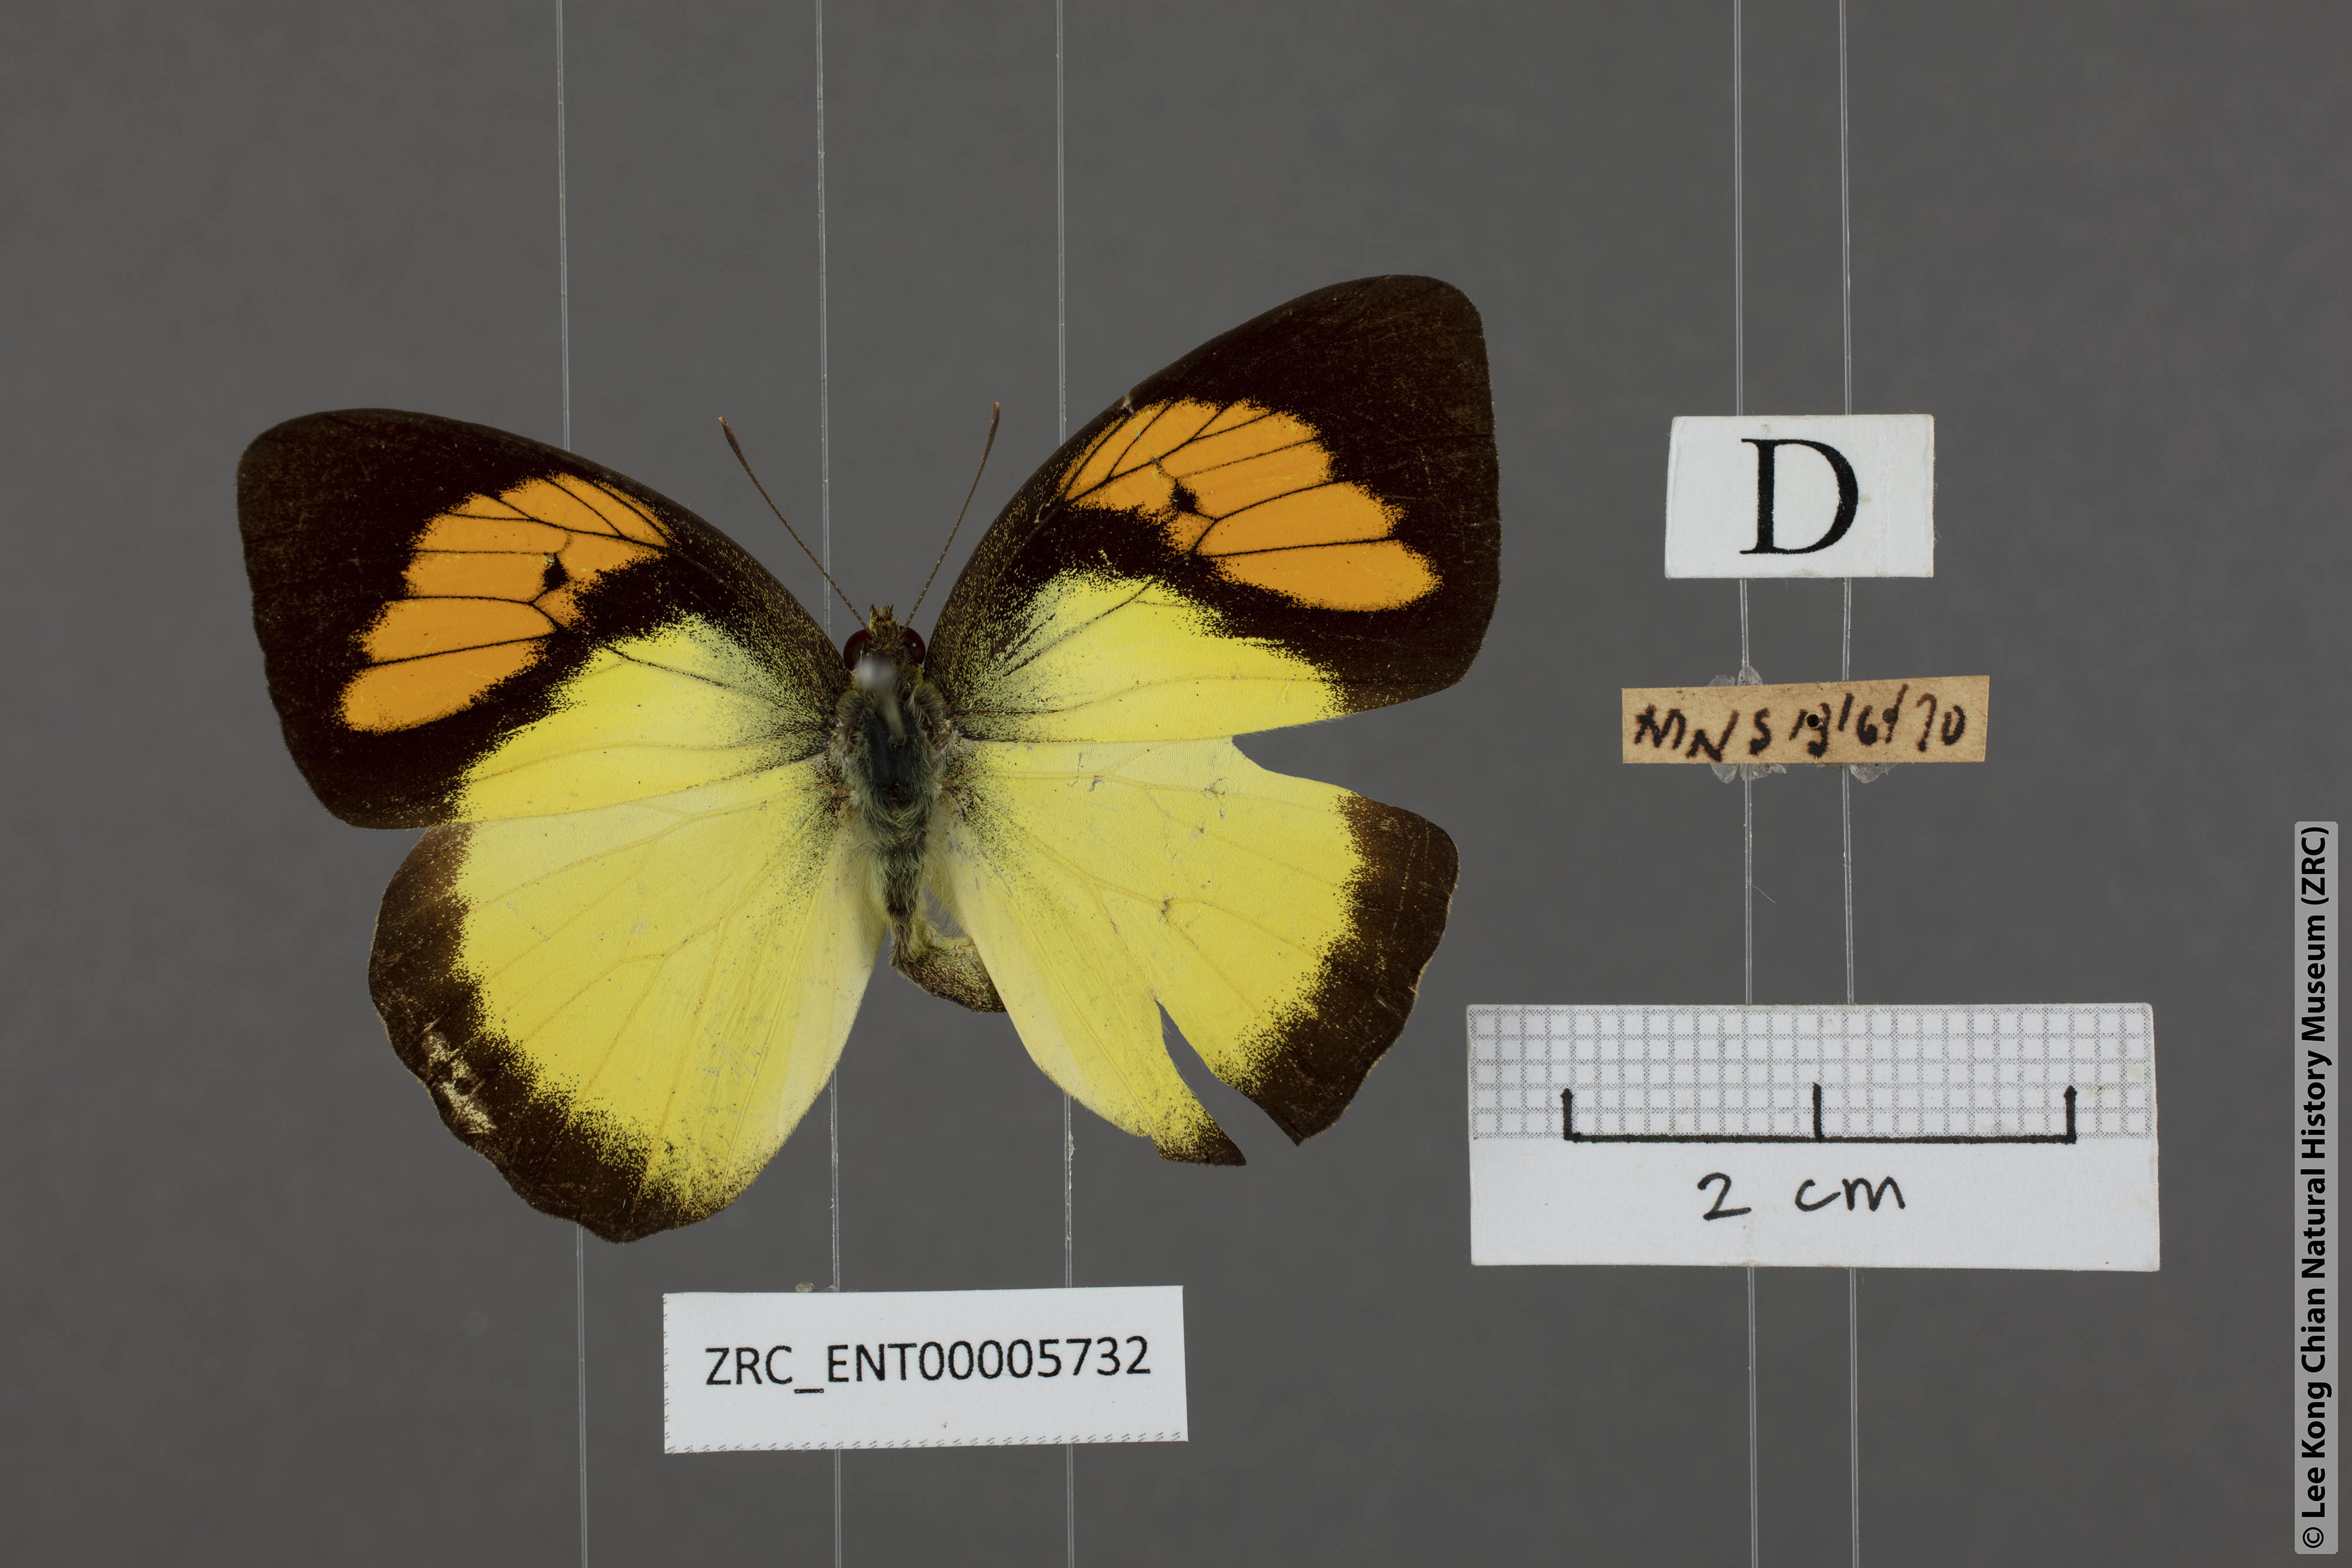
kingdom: Animalia
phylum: Arthropoda
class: Insecta
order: Lepidoptera
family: Pieridae
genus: Ixias
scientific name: Ixias pyrene
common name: Yellow orange tip
